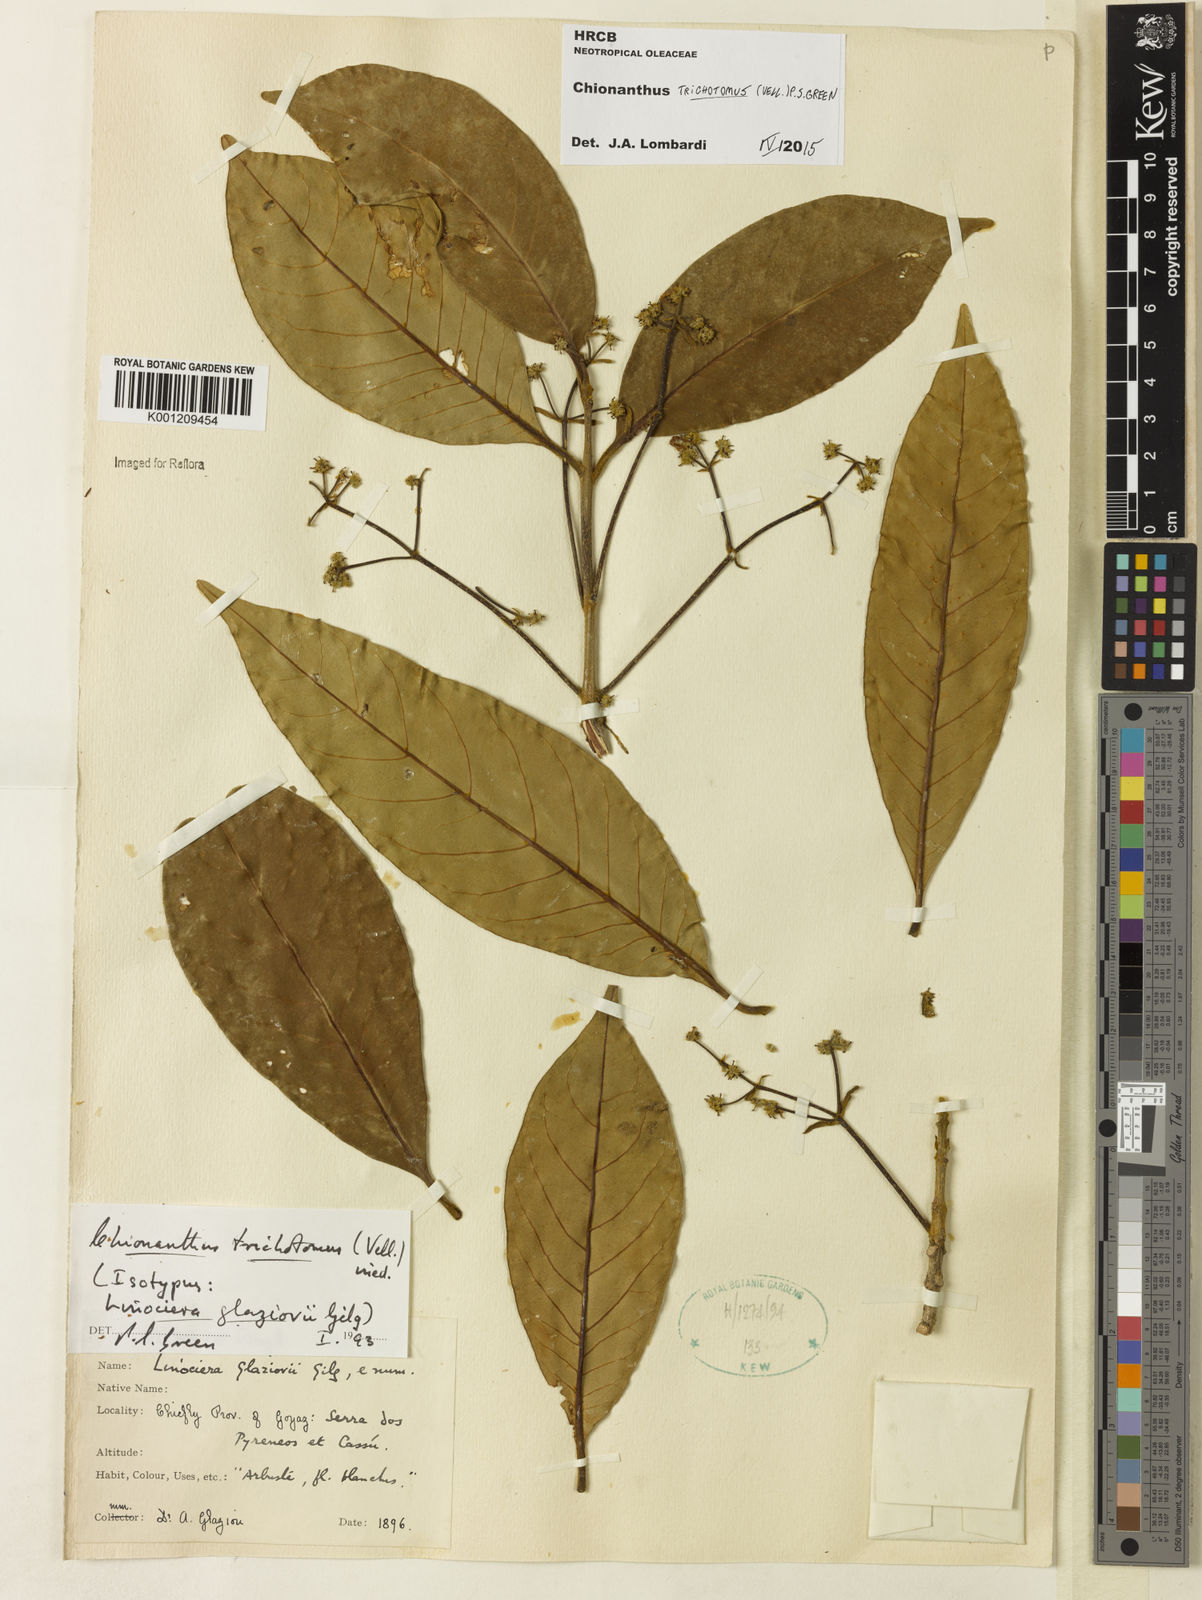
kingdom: Plantae
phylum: Tracheophyta
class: Magnoliopsida
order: Lamiales
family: Oleaceae
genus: Chionanthus
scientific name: Chionanthus trichotomus
